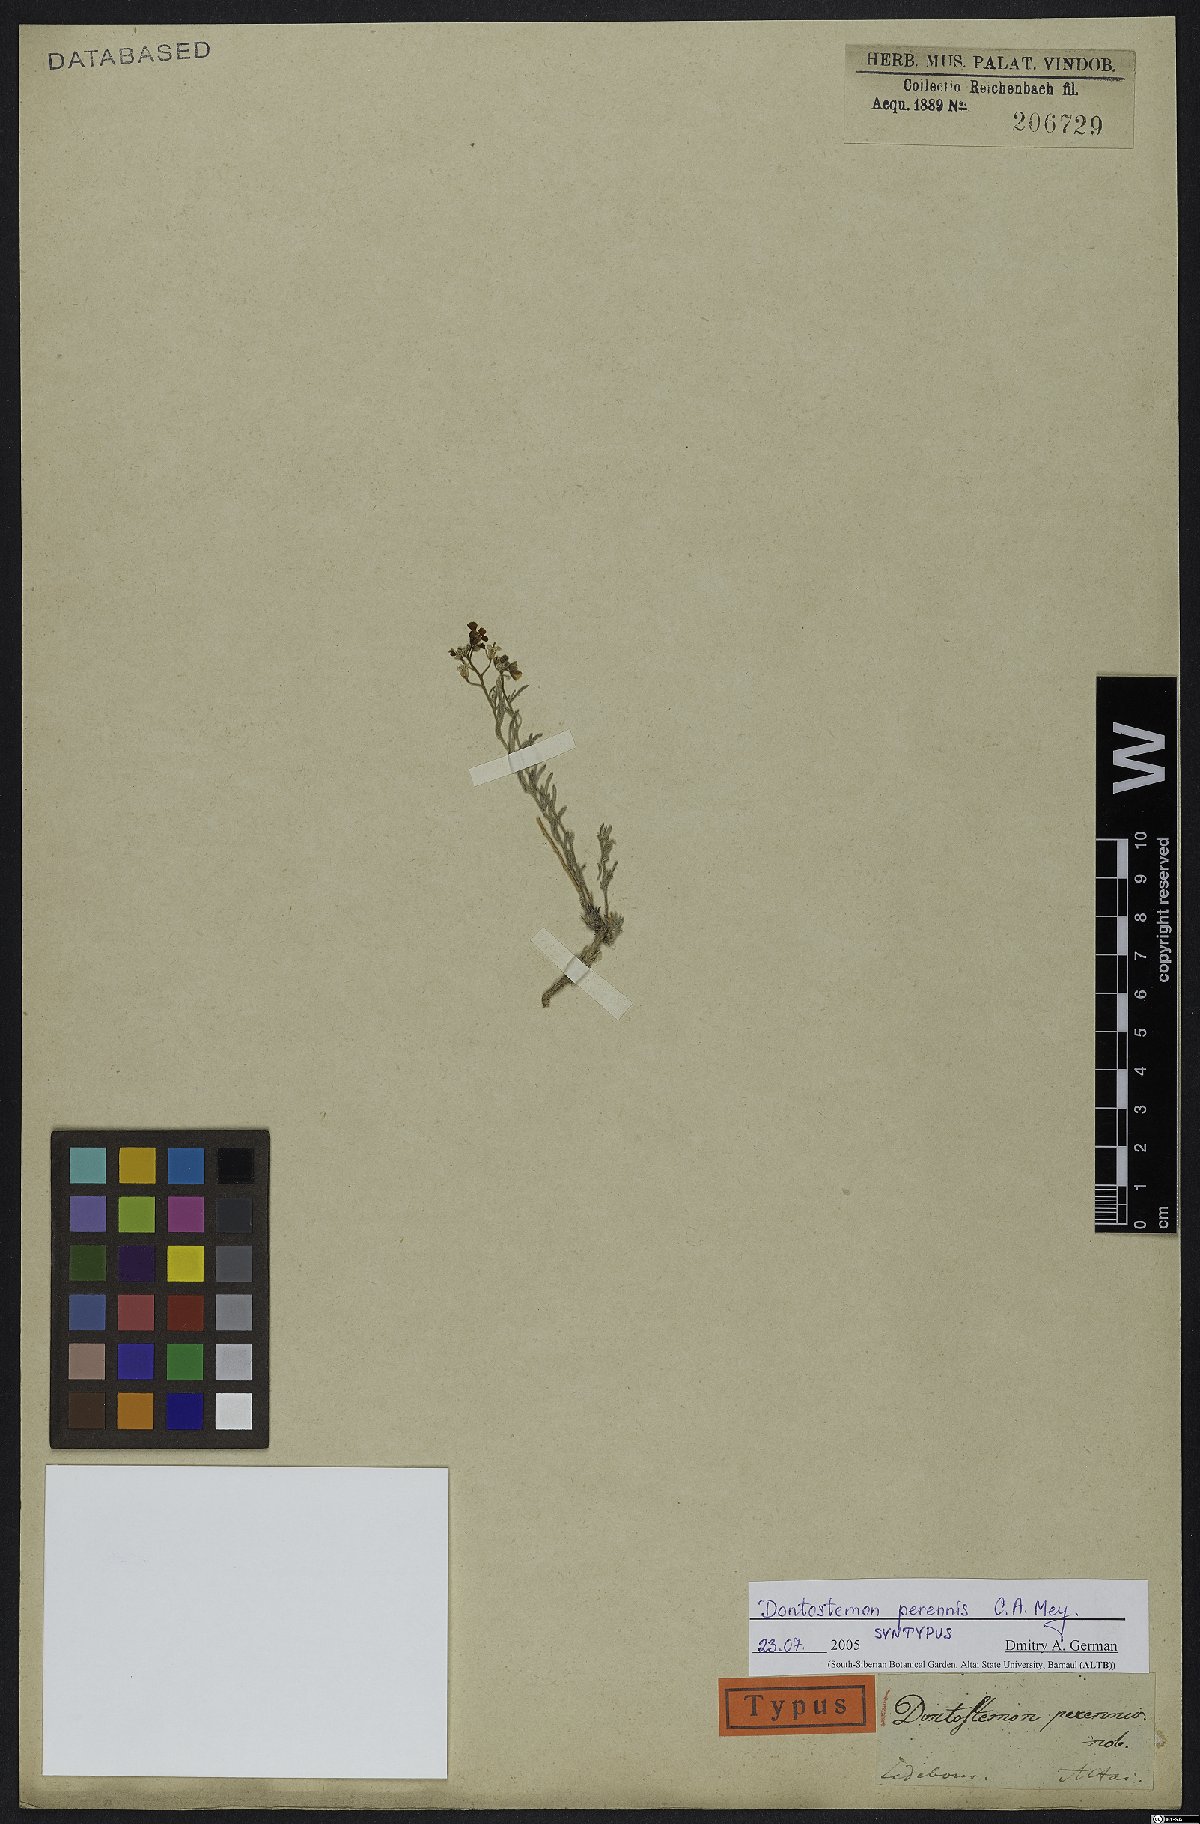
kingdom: Plantae
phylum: Tracheophyta
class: Magnoliopsida
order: Brassicales
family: Brassicaceae
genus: Dontostemon
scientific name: Dontostemon perennis
